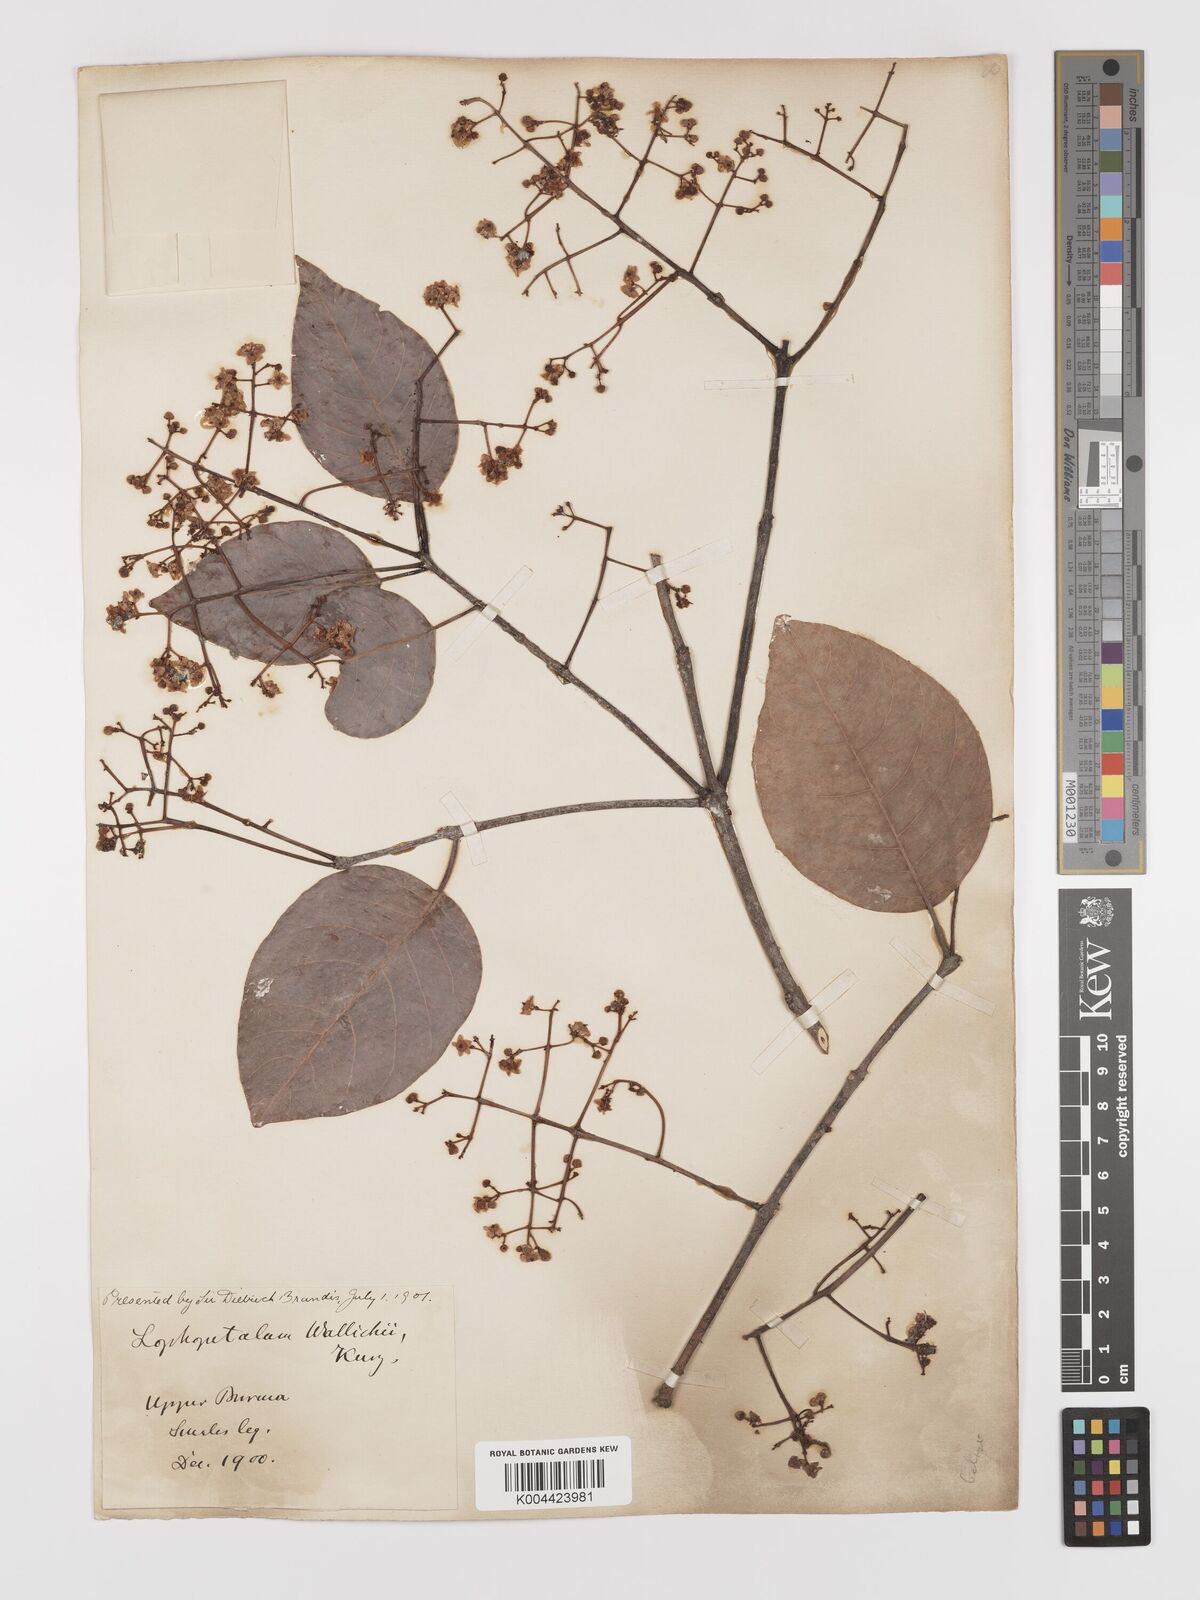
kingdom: Plantae
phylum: Tracheophyta
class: Magnoliopsida
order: Celastrales
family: Celastraceae
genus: Lophopetalum
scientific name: Lophopetalum wallichii
